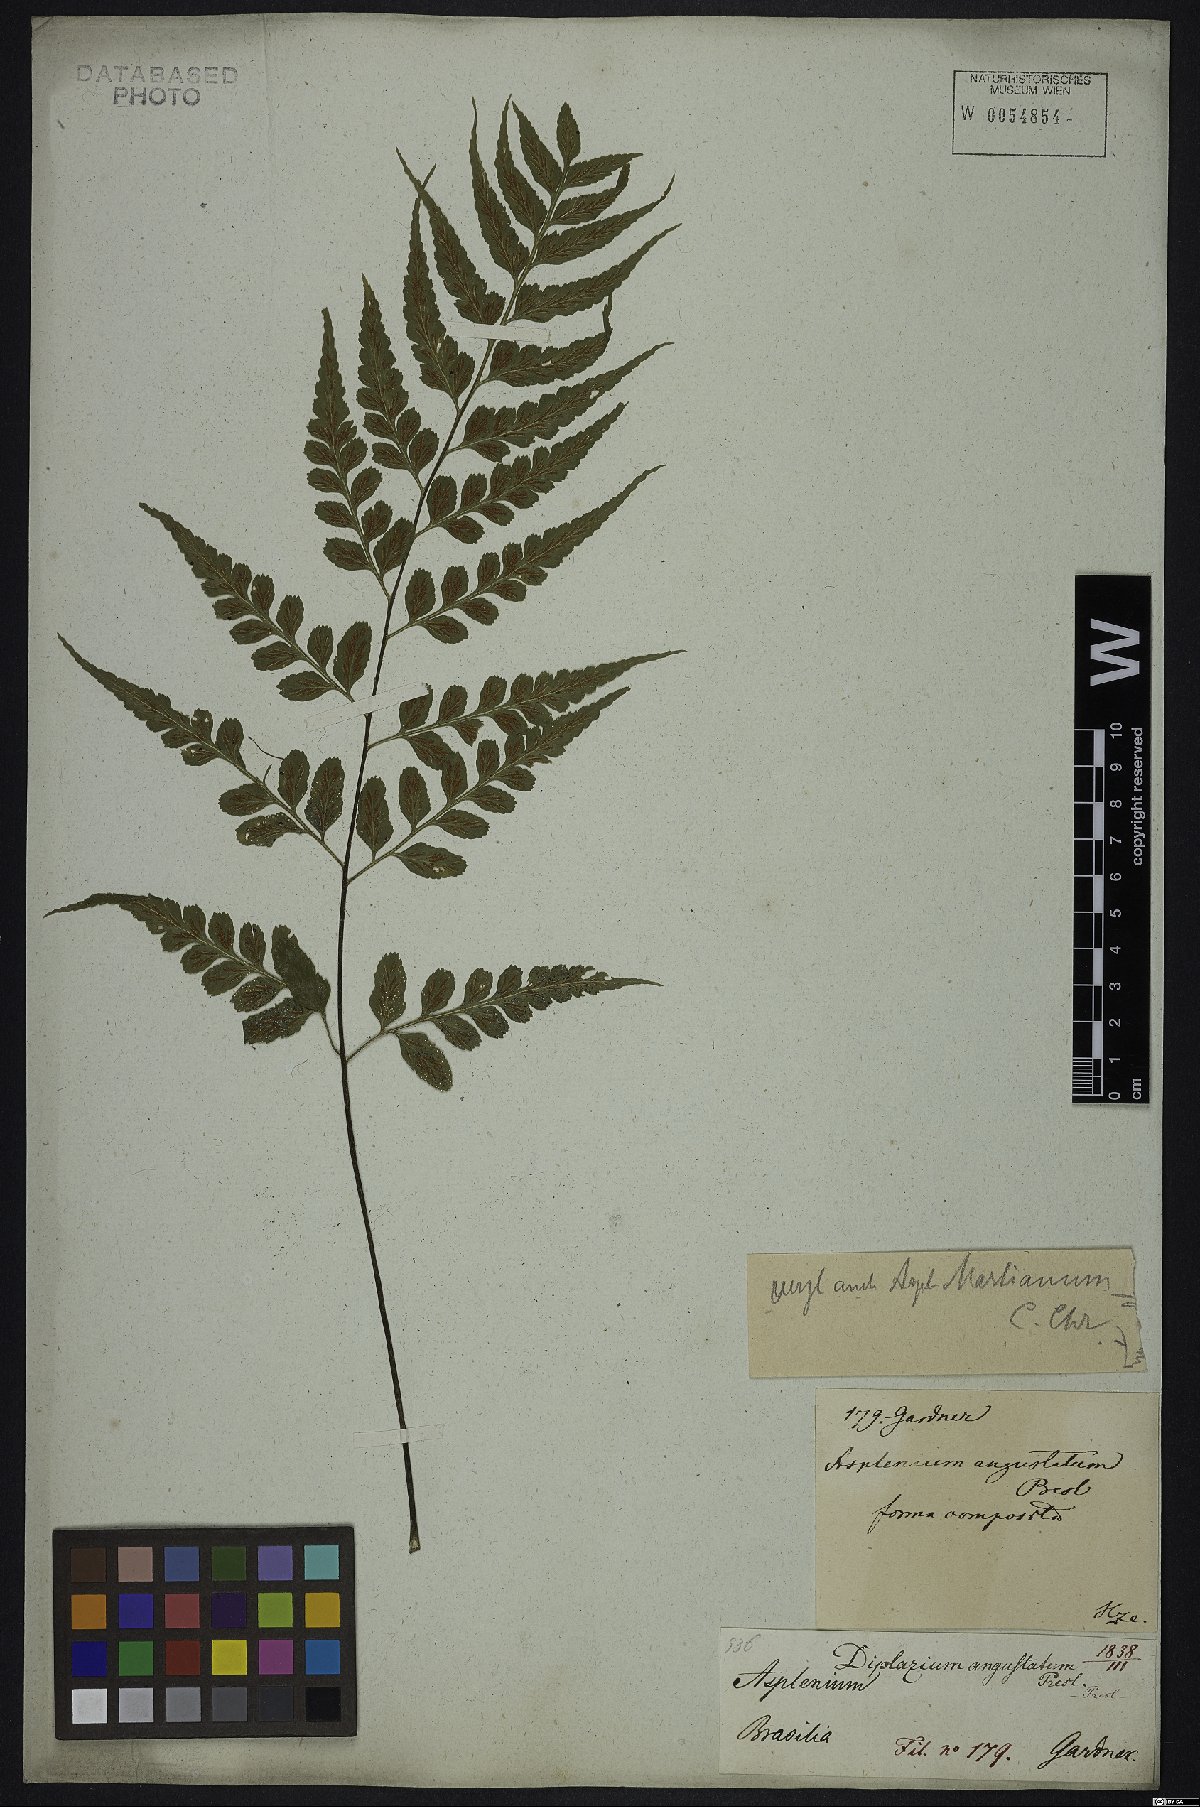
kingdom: Plantae
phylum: Tracheophyta
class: Polypodiopsida
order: Polypodiales
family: Aspleniaceae
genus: Asplenium
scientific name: Asplenium austrobrasiliense
